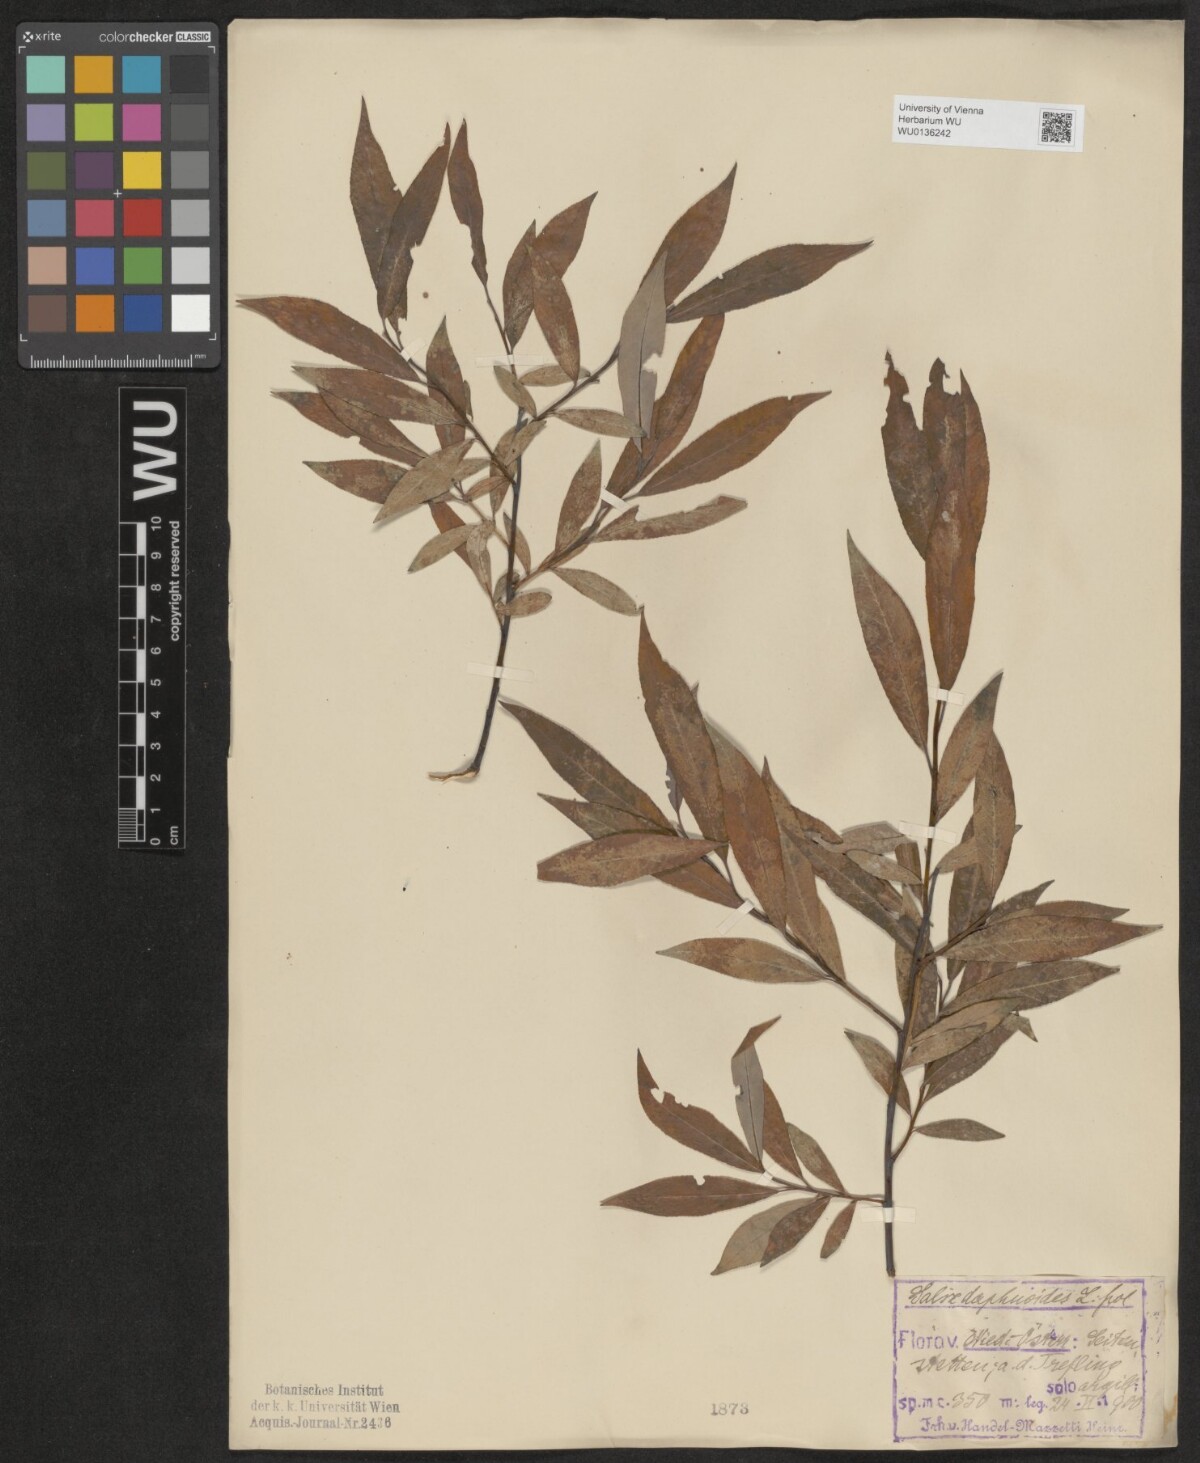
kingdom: Plantae
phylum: Tracheophyta
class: Magnoliopsida
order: Malpighiales
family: Salicaceae
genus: Salix
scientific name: Salix daphnoides
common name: European violet-willow
